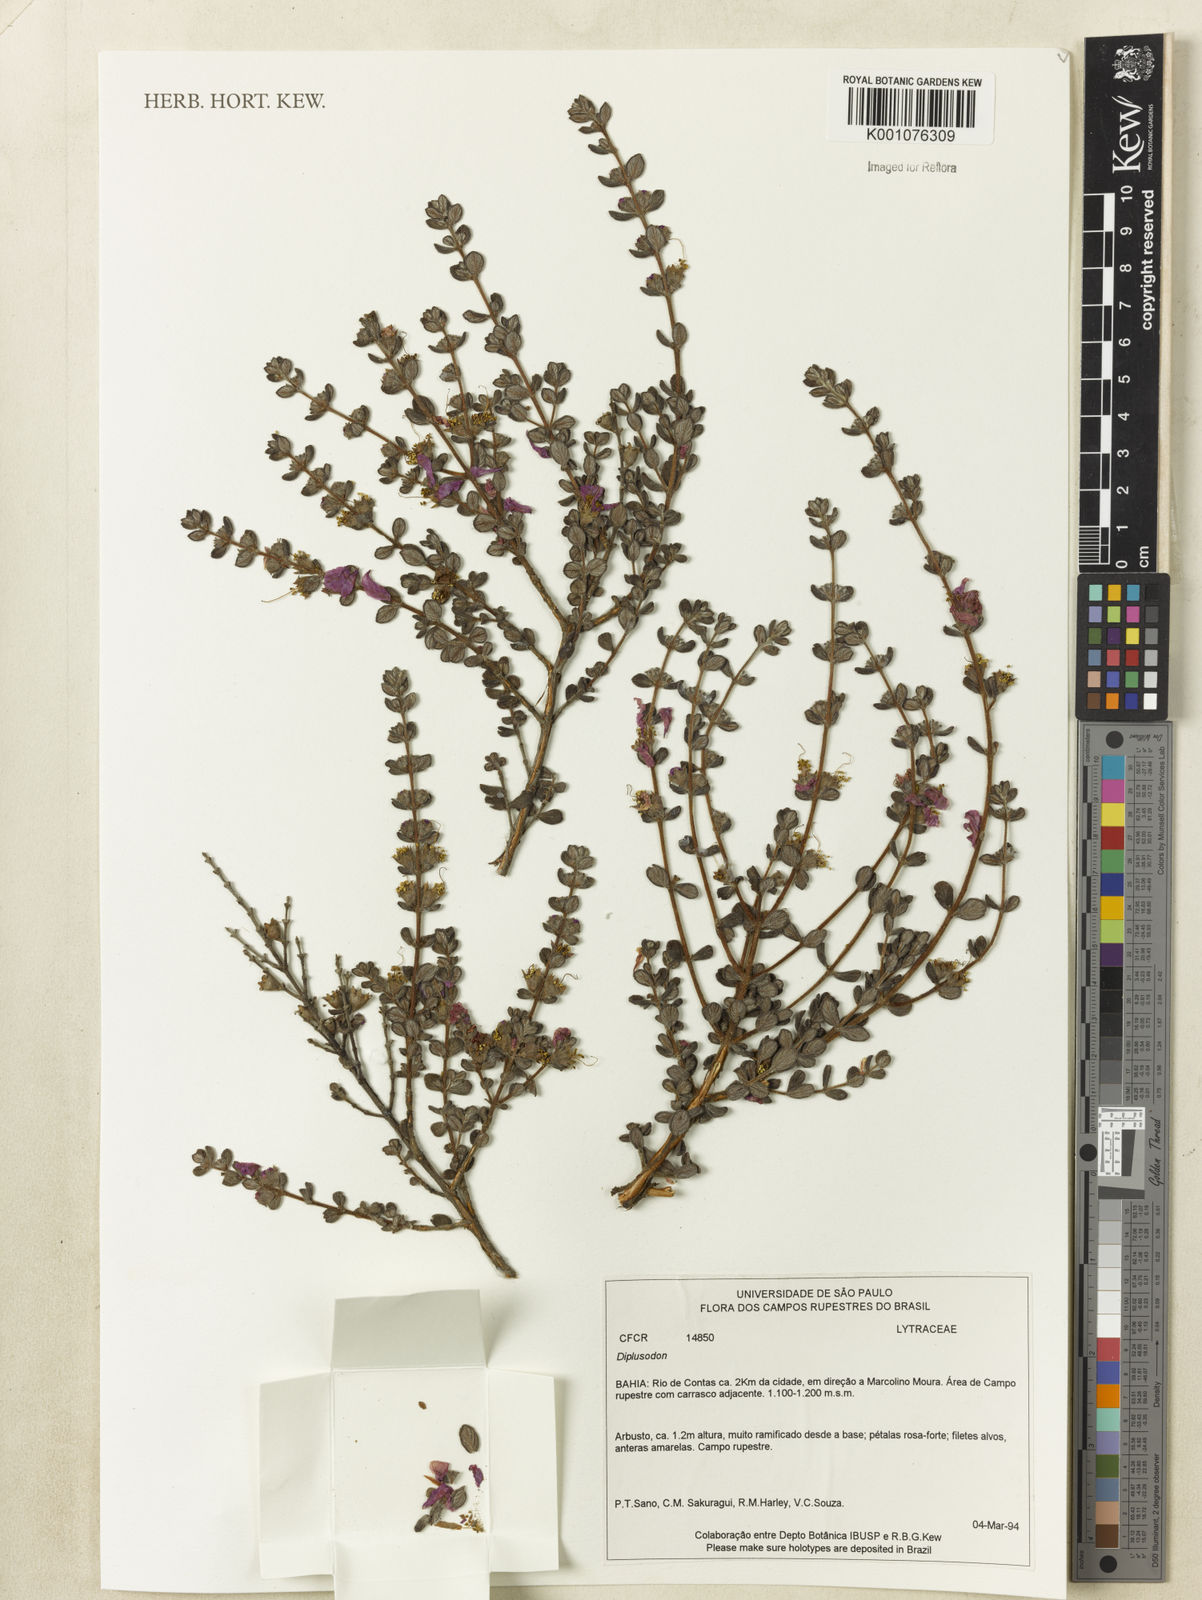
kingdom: Plantae
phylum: Tracheophyta
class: Magnoliopsida
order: Myrtales
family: Lythraceae
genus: Diplusodon
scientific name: Diplusodon hirsutus
